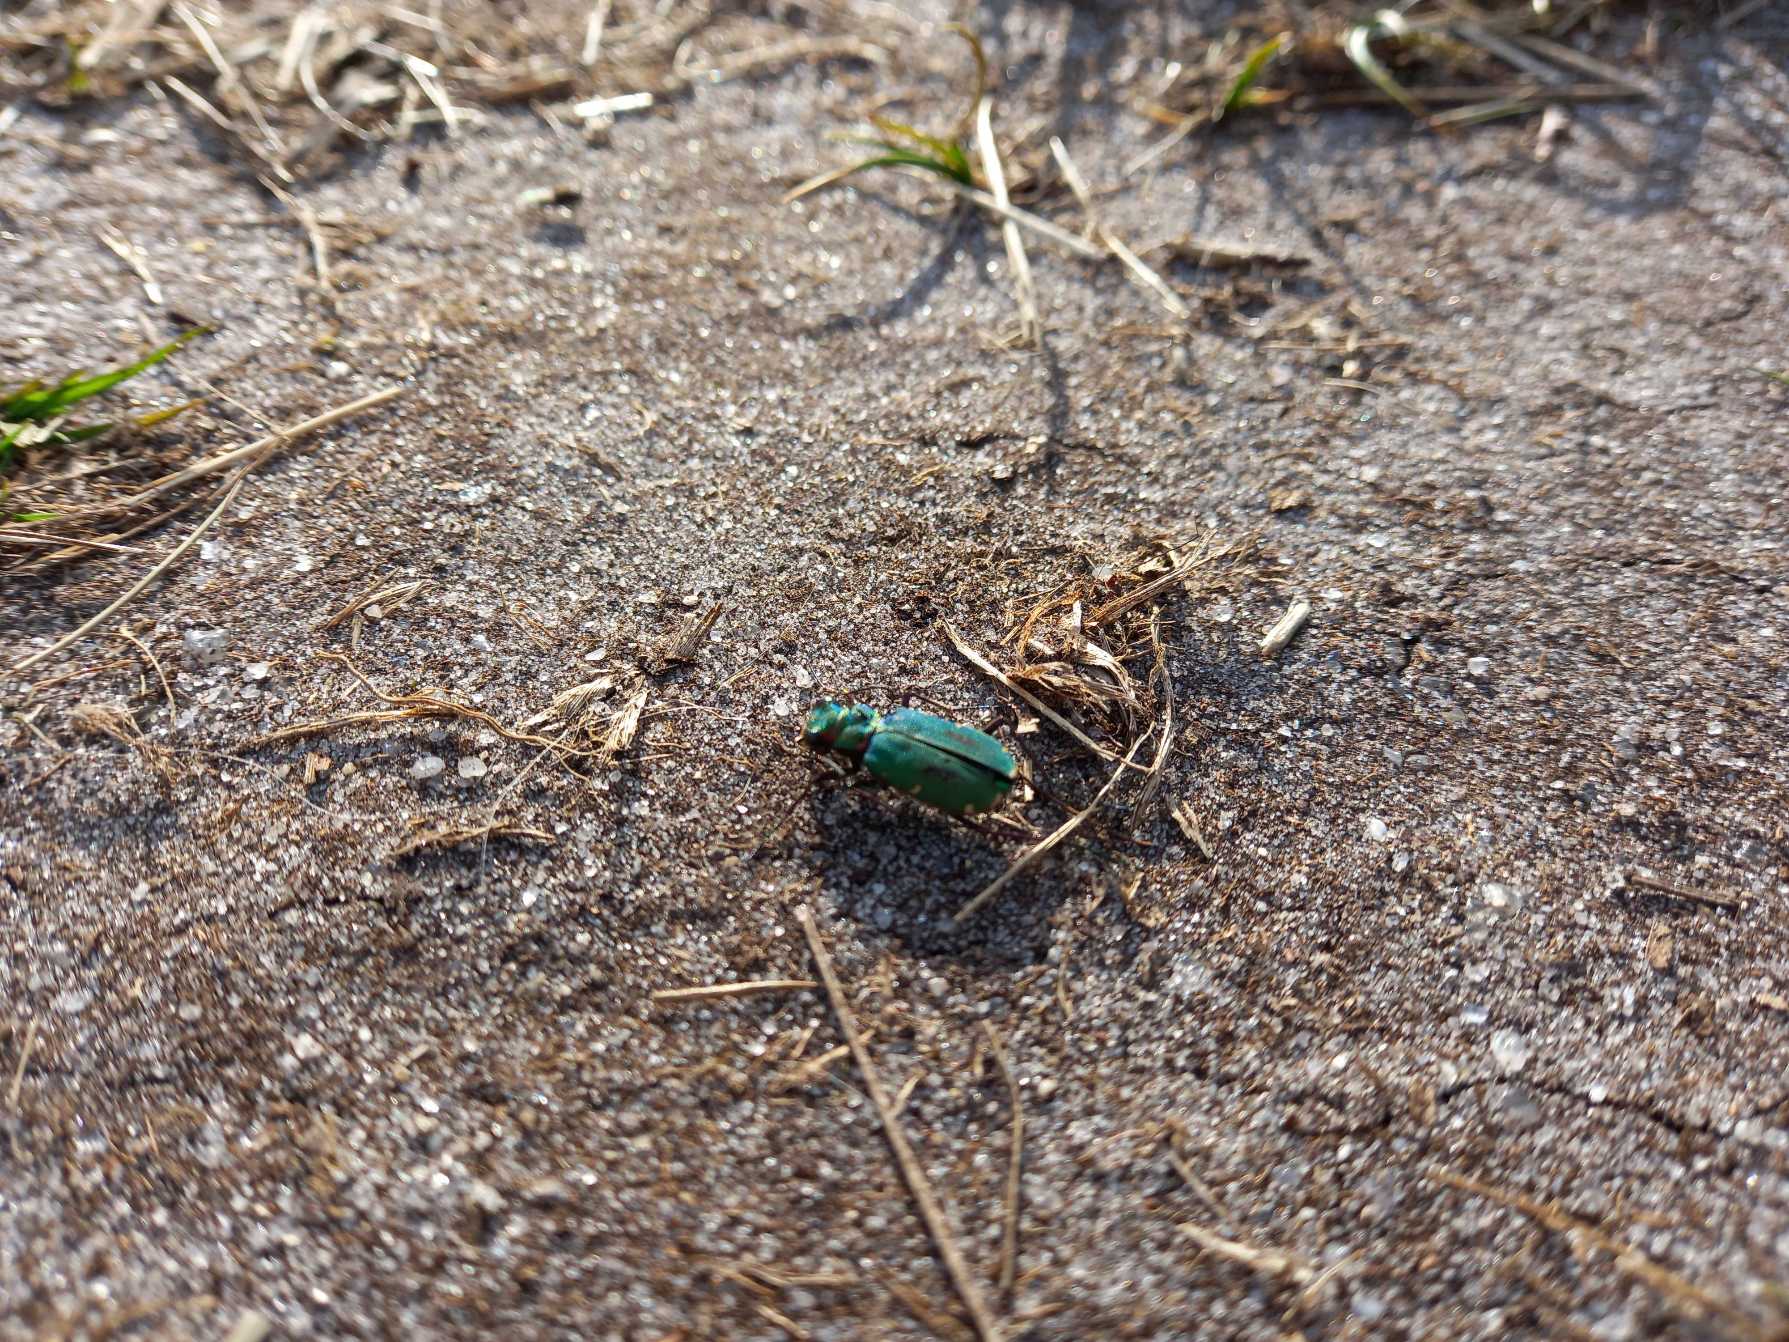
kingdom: Animalia
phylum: Arthropoda
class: Insecta
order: Coleoptera
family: Carabidae
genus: Cicindela
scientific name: Cicindela campestris
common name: Grøn sandspringer
